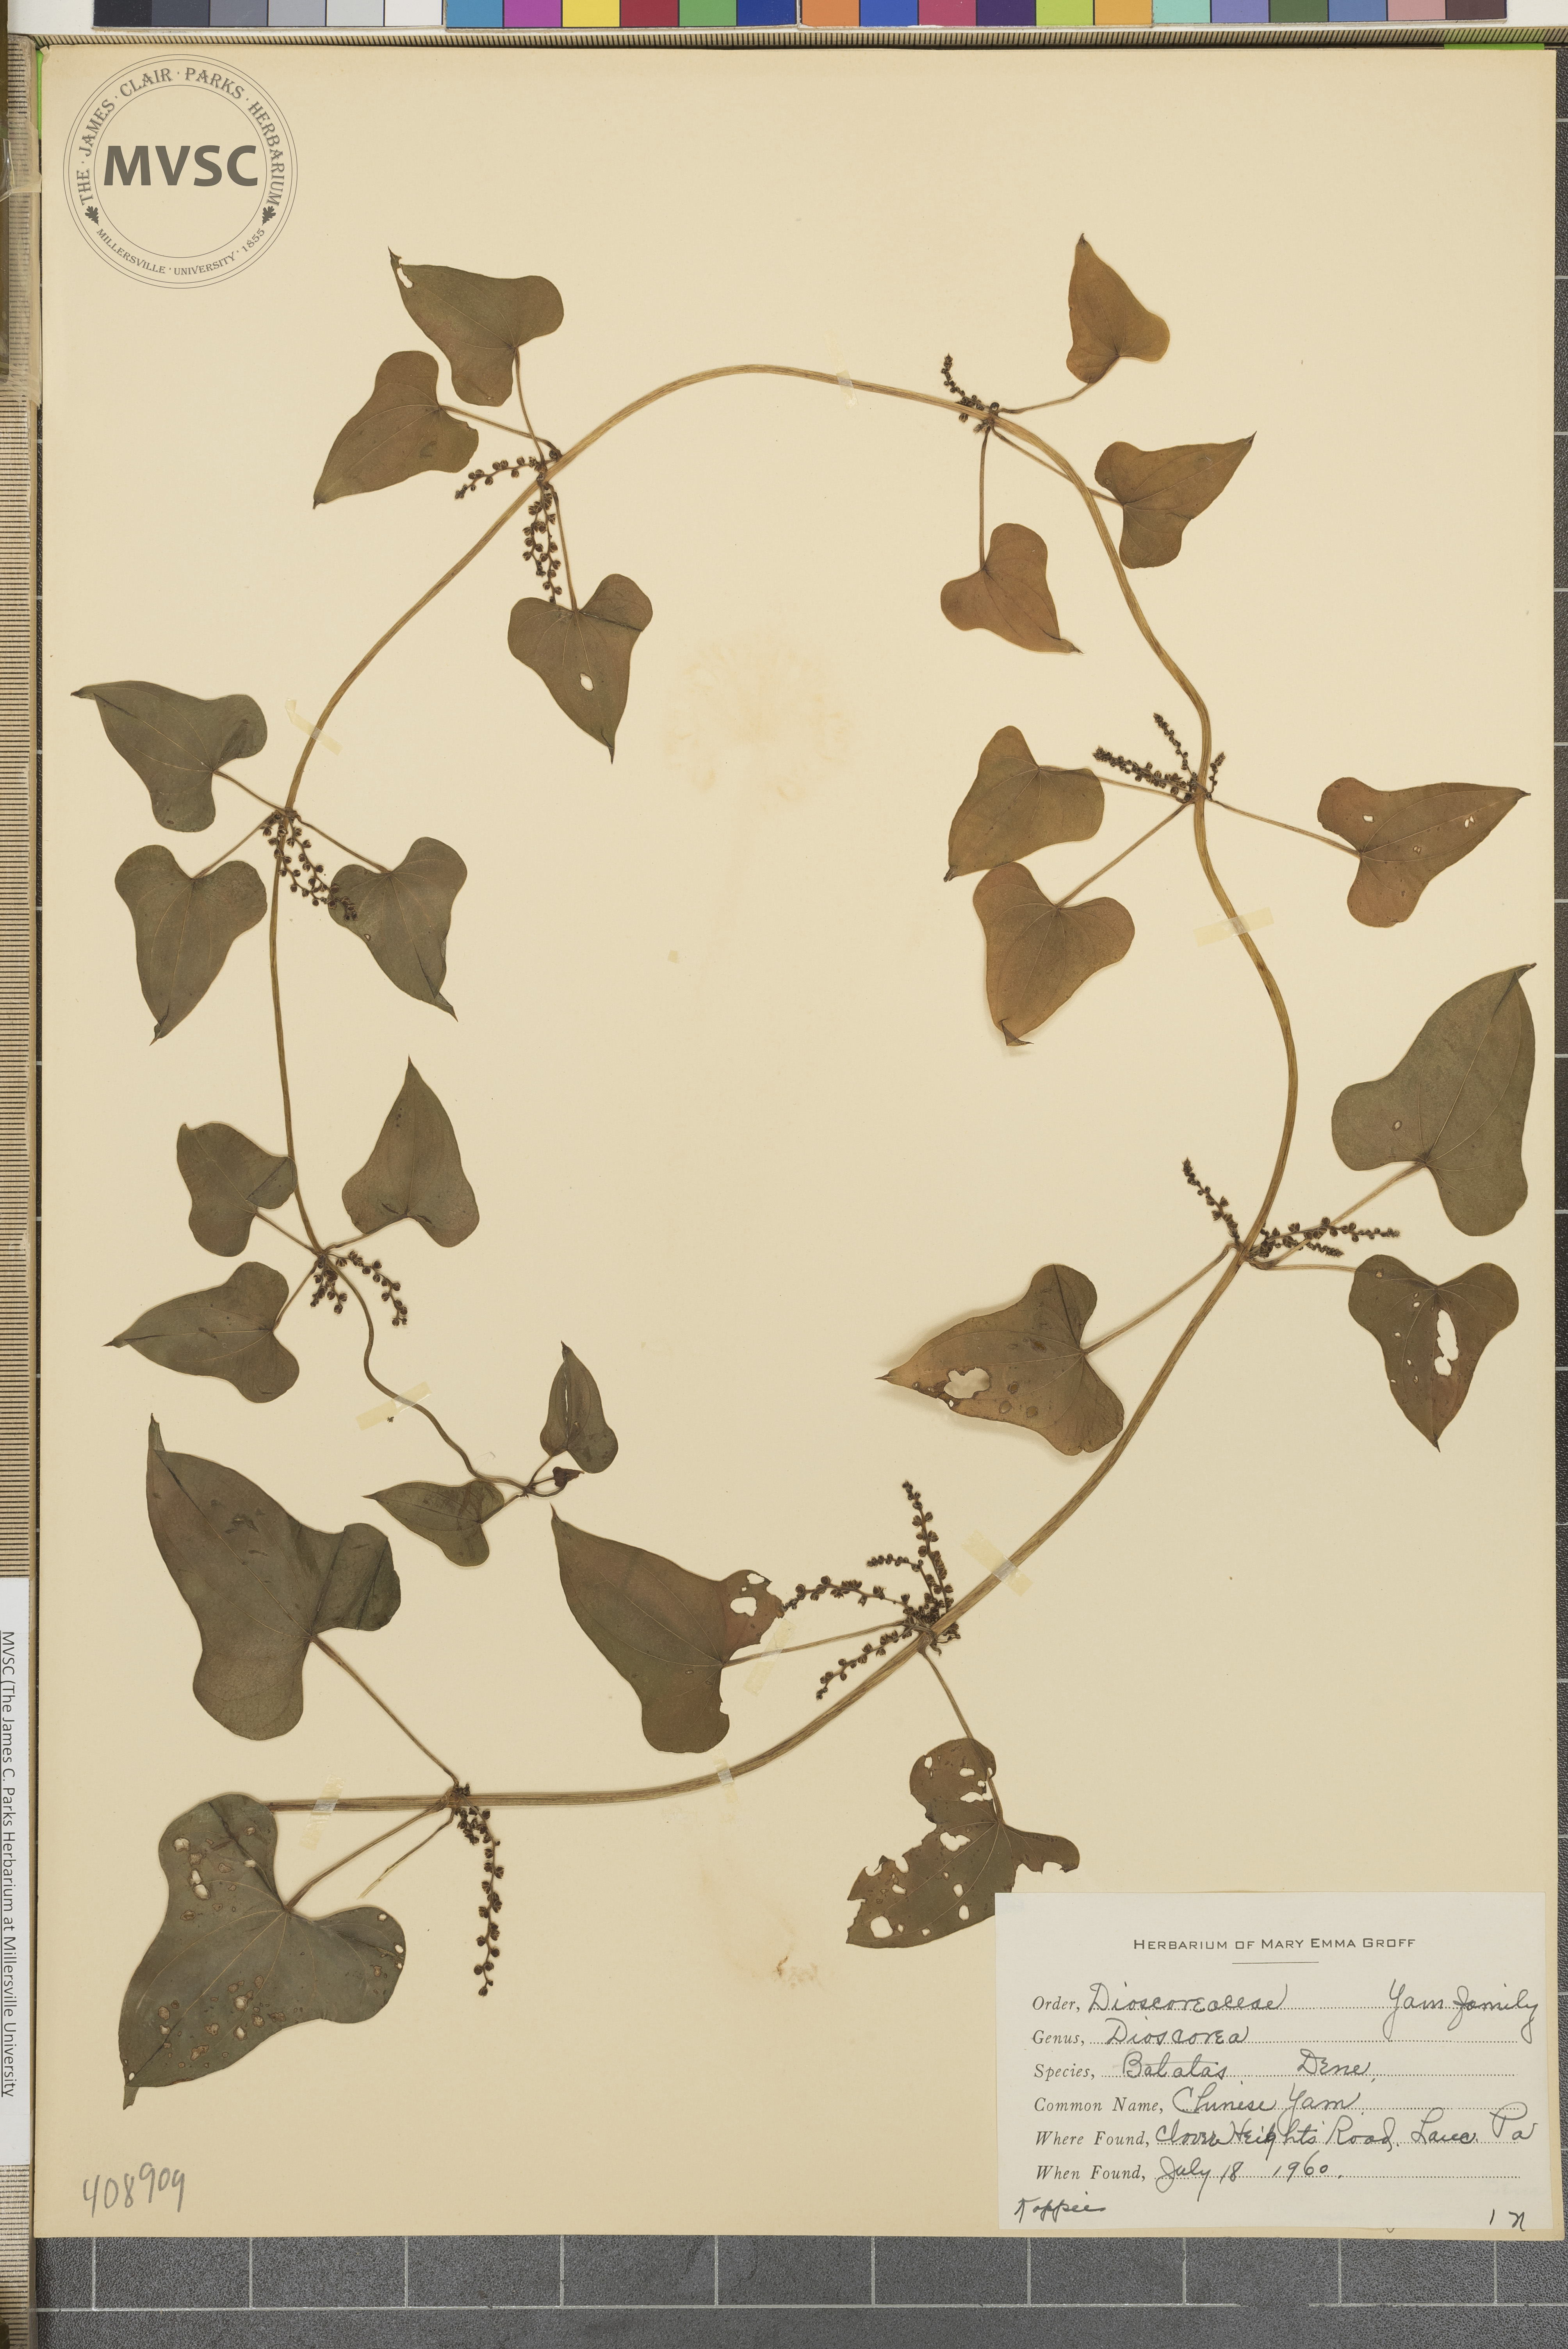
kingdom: Plantae
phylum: Tracheophyta
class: Liliopsida
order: Dioscoreales
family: Dioscoreaceae
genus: Dioscorea
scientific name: Dioscorea polystachya
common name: Chinese Yam
